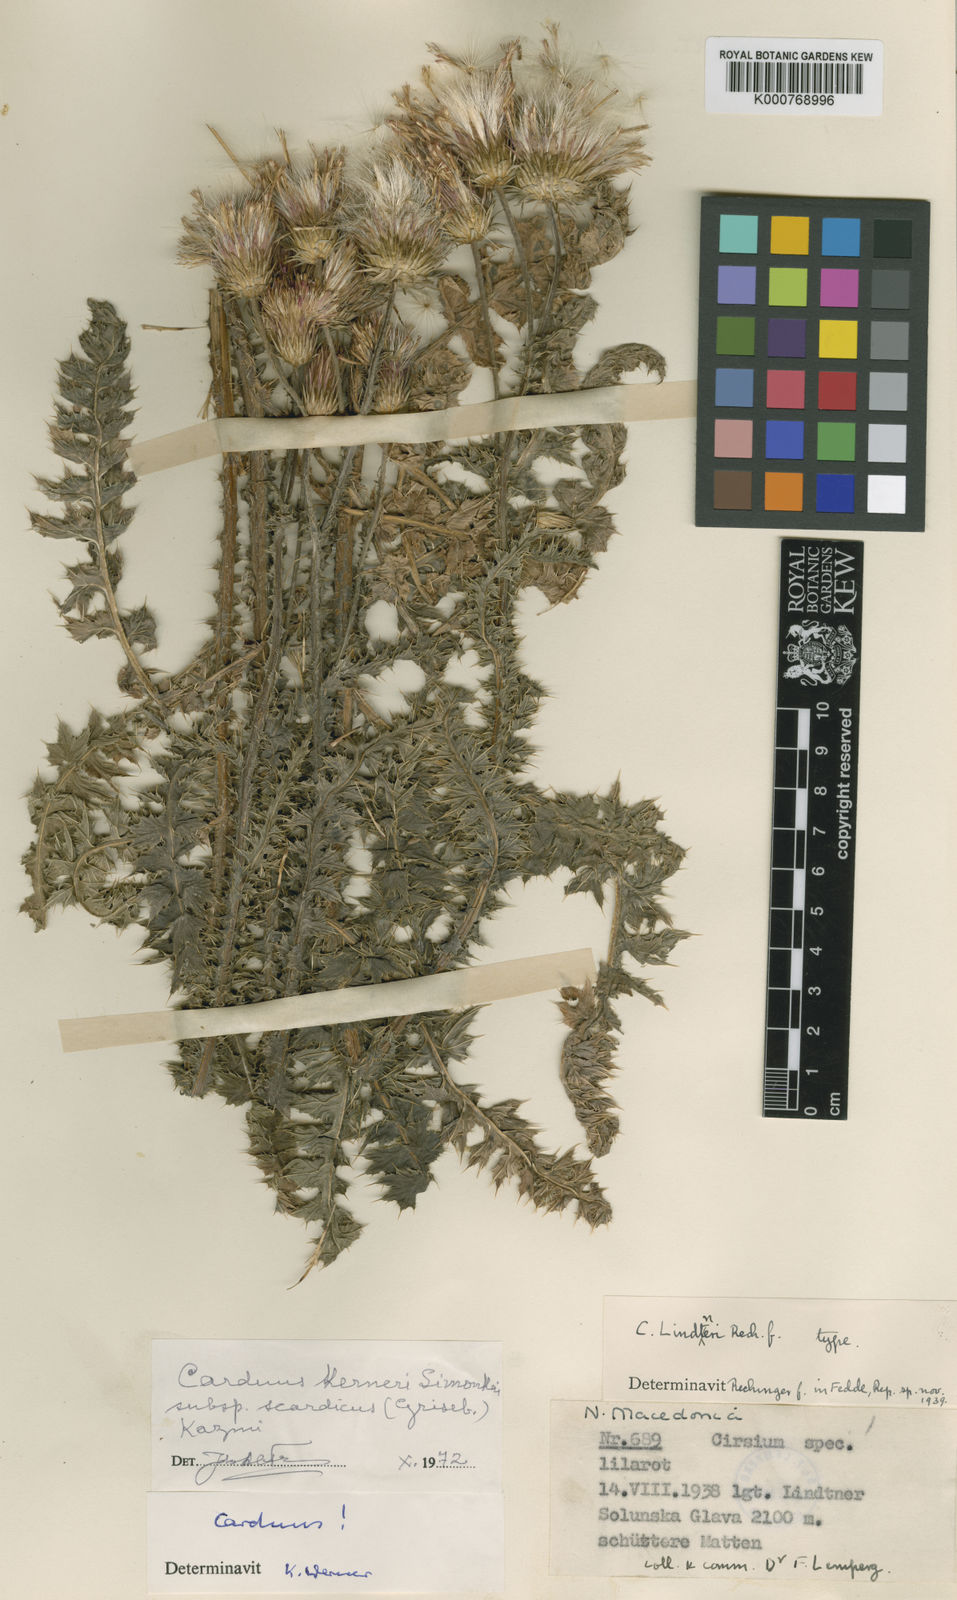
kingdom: Plantae
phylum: Tracheophyta
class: Magnoliopsida
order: Asterales
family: Asteraceae
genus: Carduus
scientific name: Carduus kerneri
